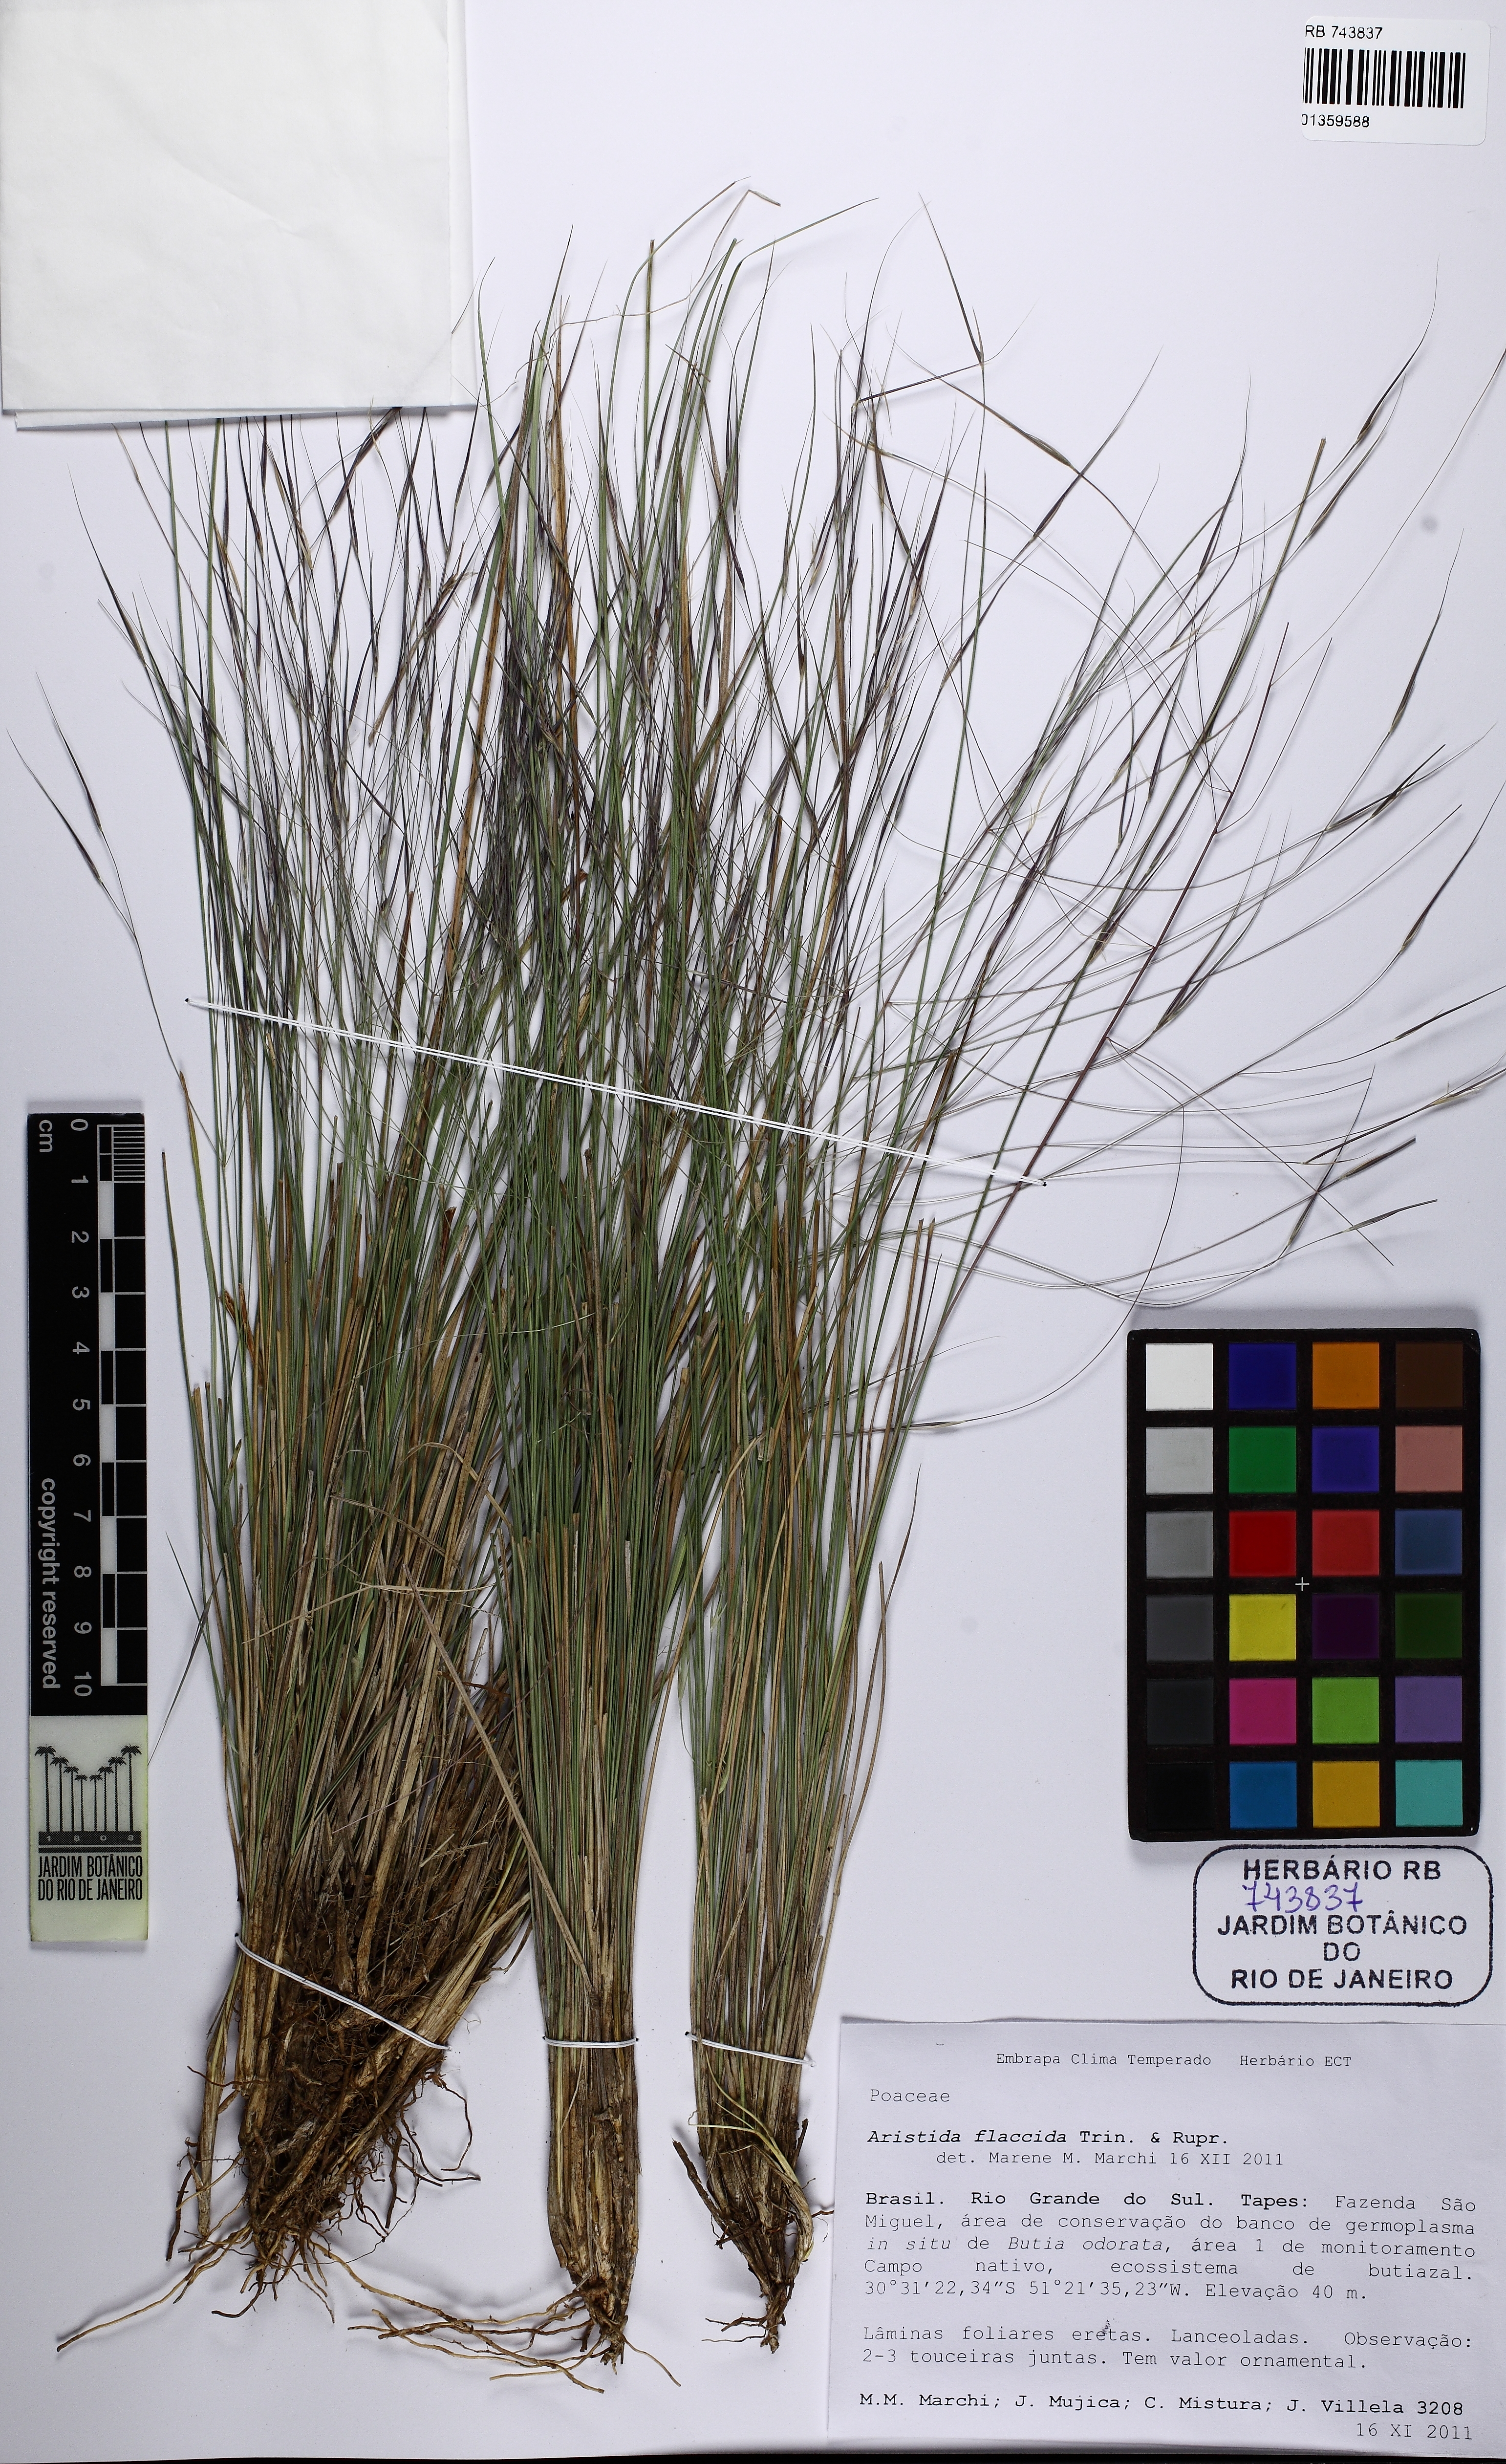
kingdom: Plantae
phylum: Tracheophyta
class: Liliopsida
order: Poales
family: Poaceae
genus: Aristida
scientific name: Aristida flaccida
